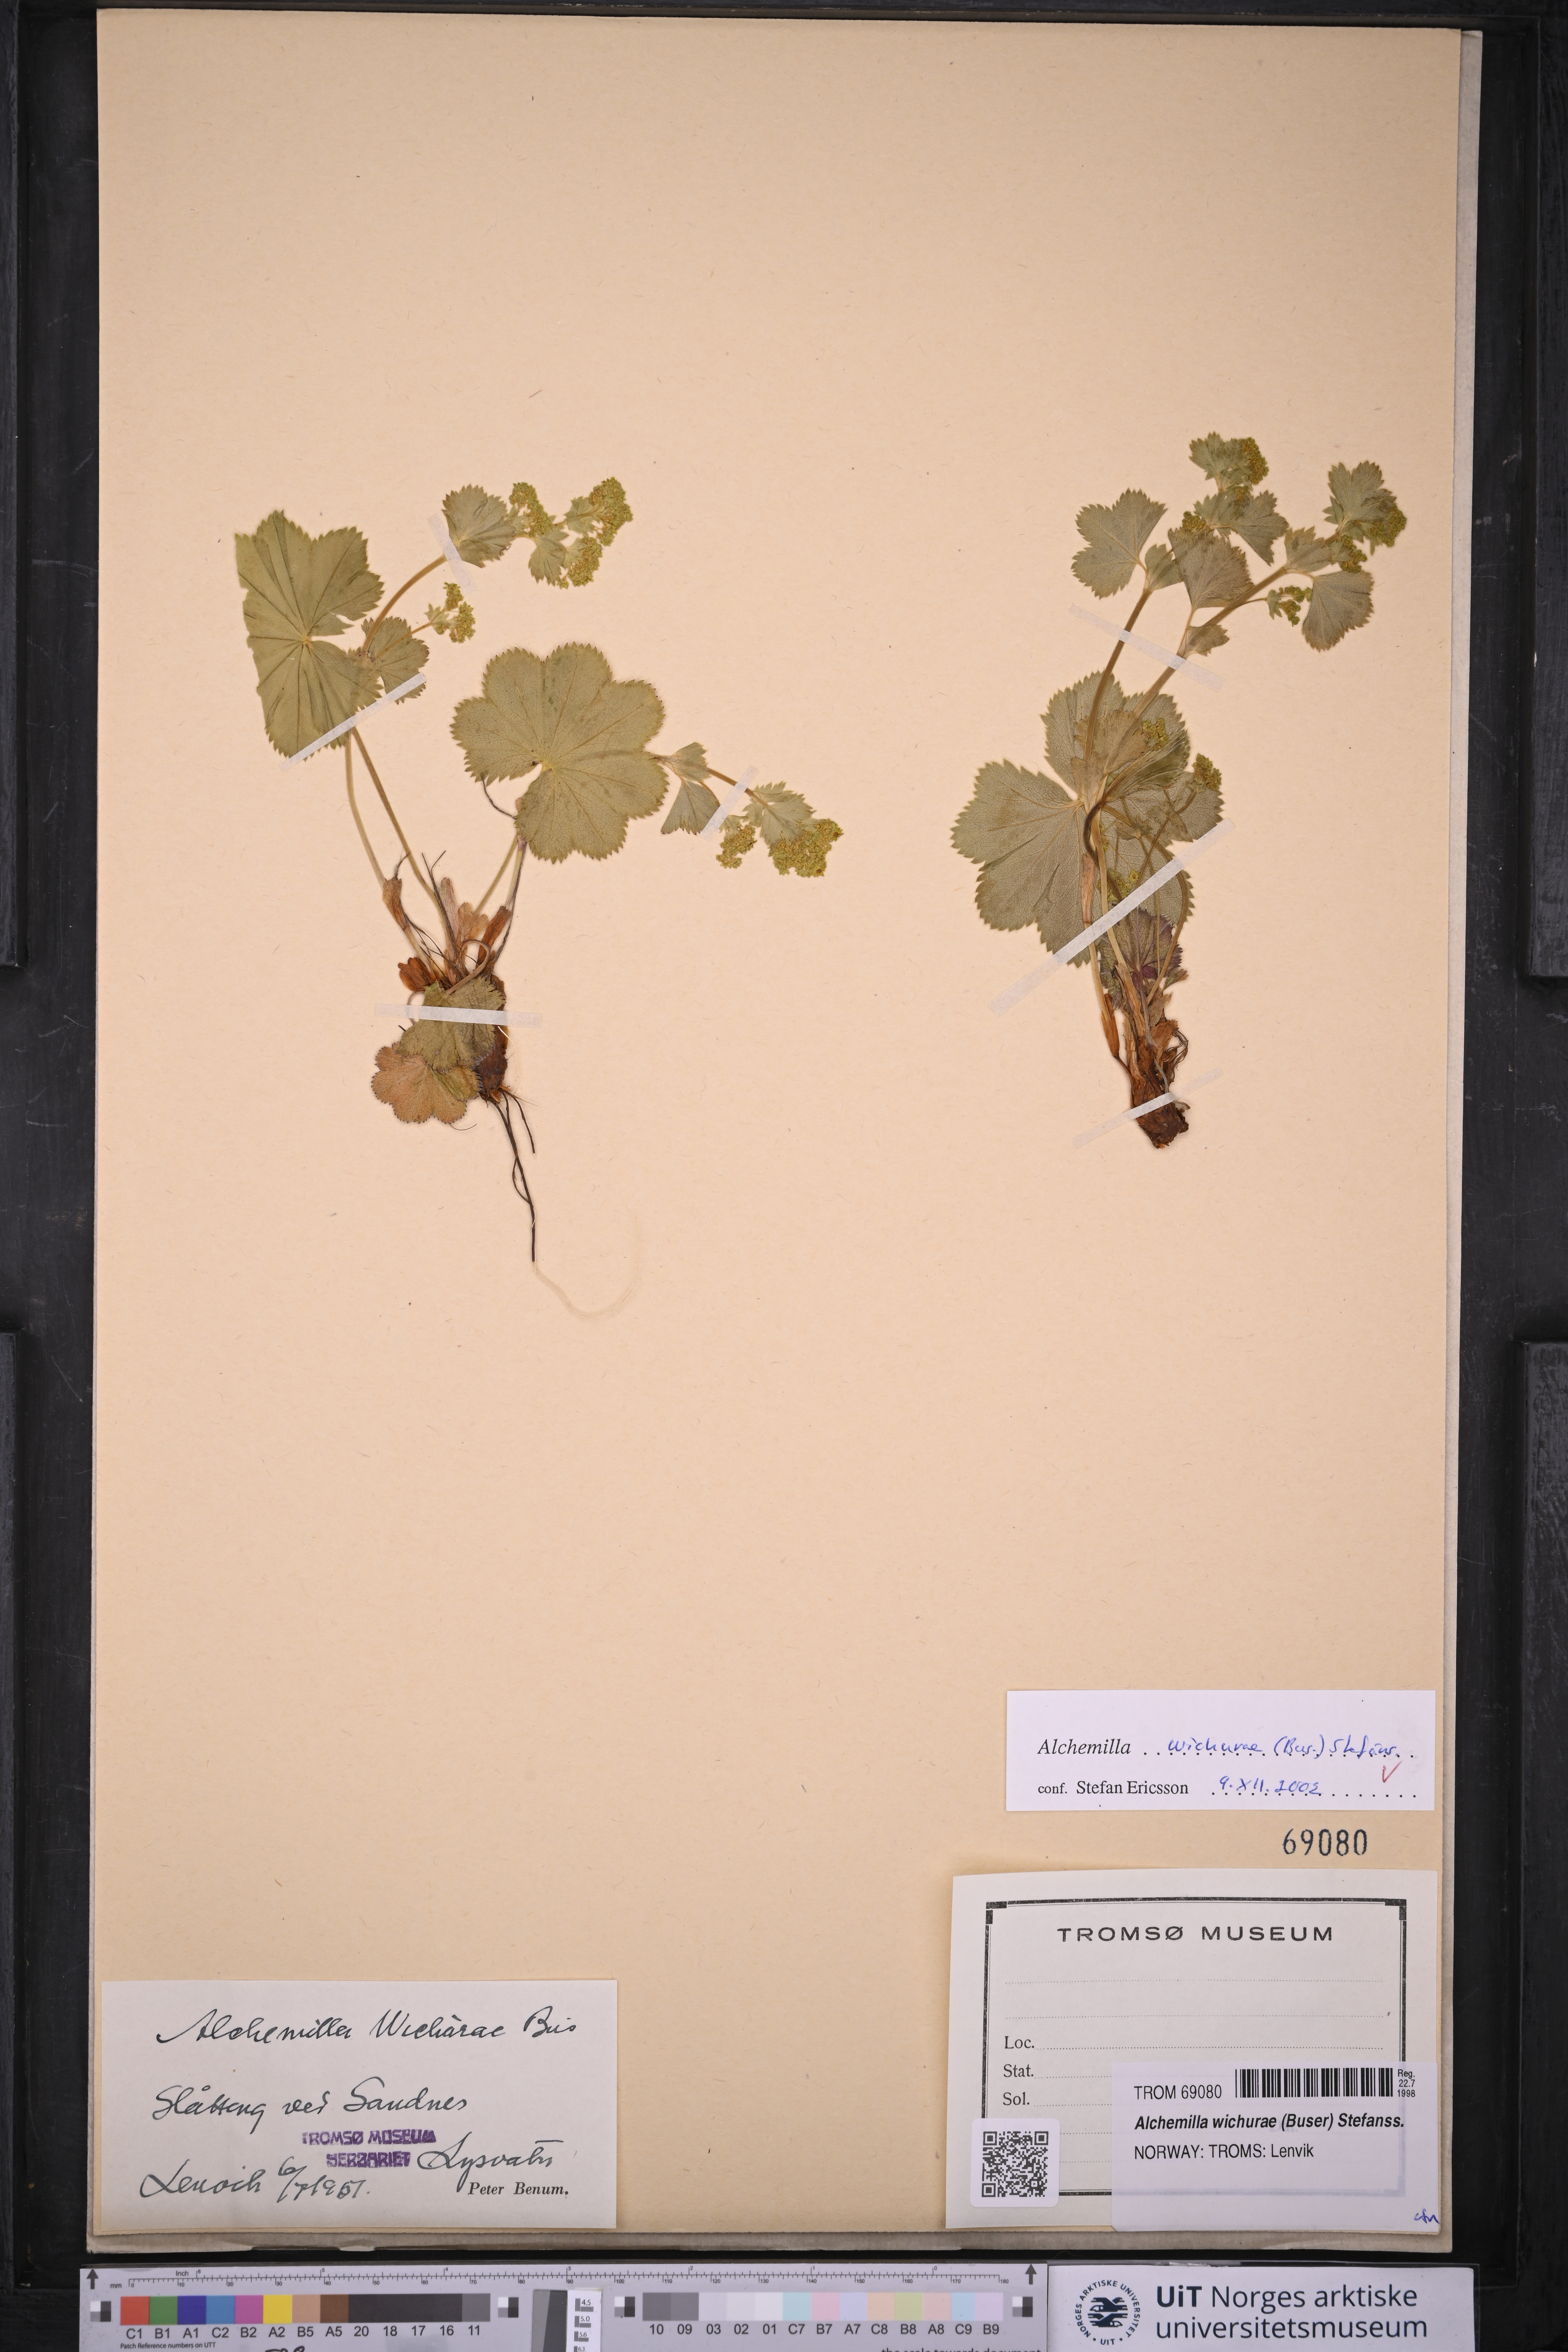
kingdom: Plantae
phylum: Tracheophyta
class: Magnoliopsida
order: Rosales
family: Rosaceae
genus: Alchemilla
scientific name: Alchemilla wichurae
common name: Rock lady's mantle
